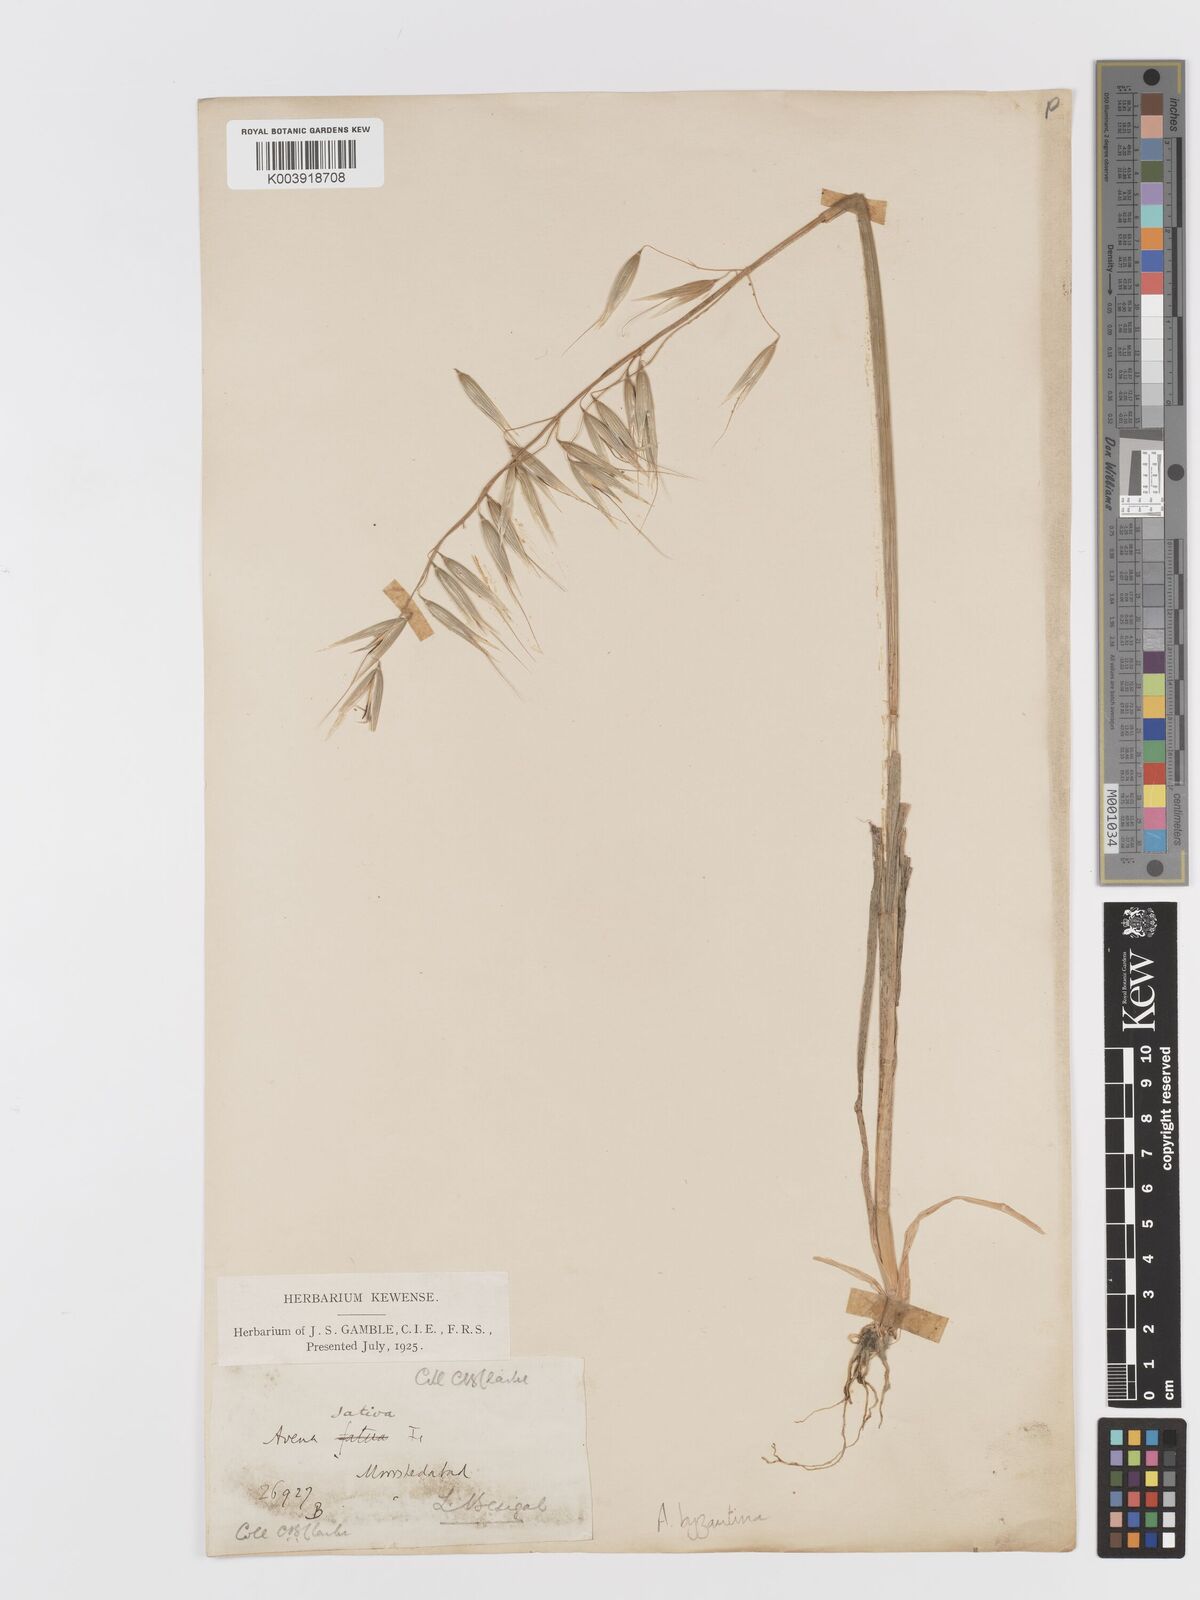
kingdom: Plantae
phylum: Tracheophyta
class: Liliopsida
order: Poales
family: Poaceae
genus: Avena
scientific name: Avena byzantina
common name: Algerian oat
